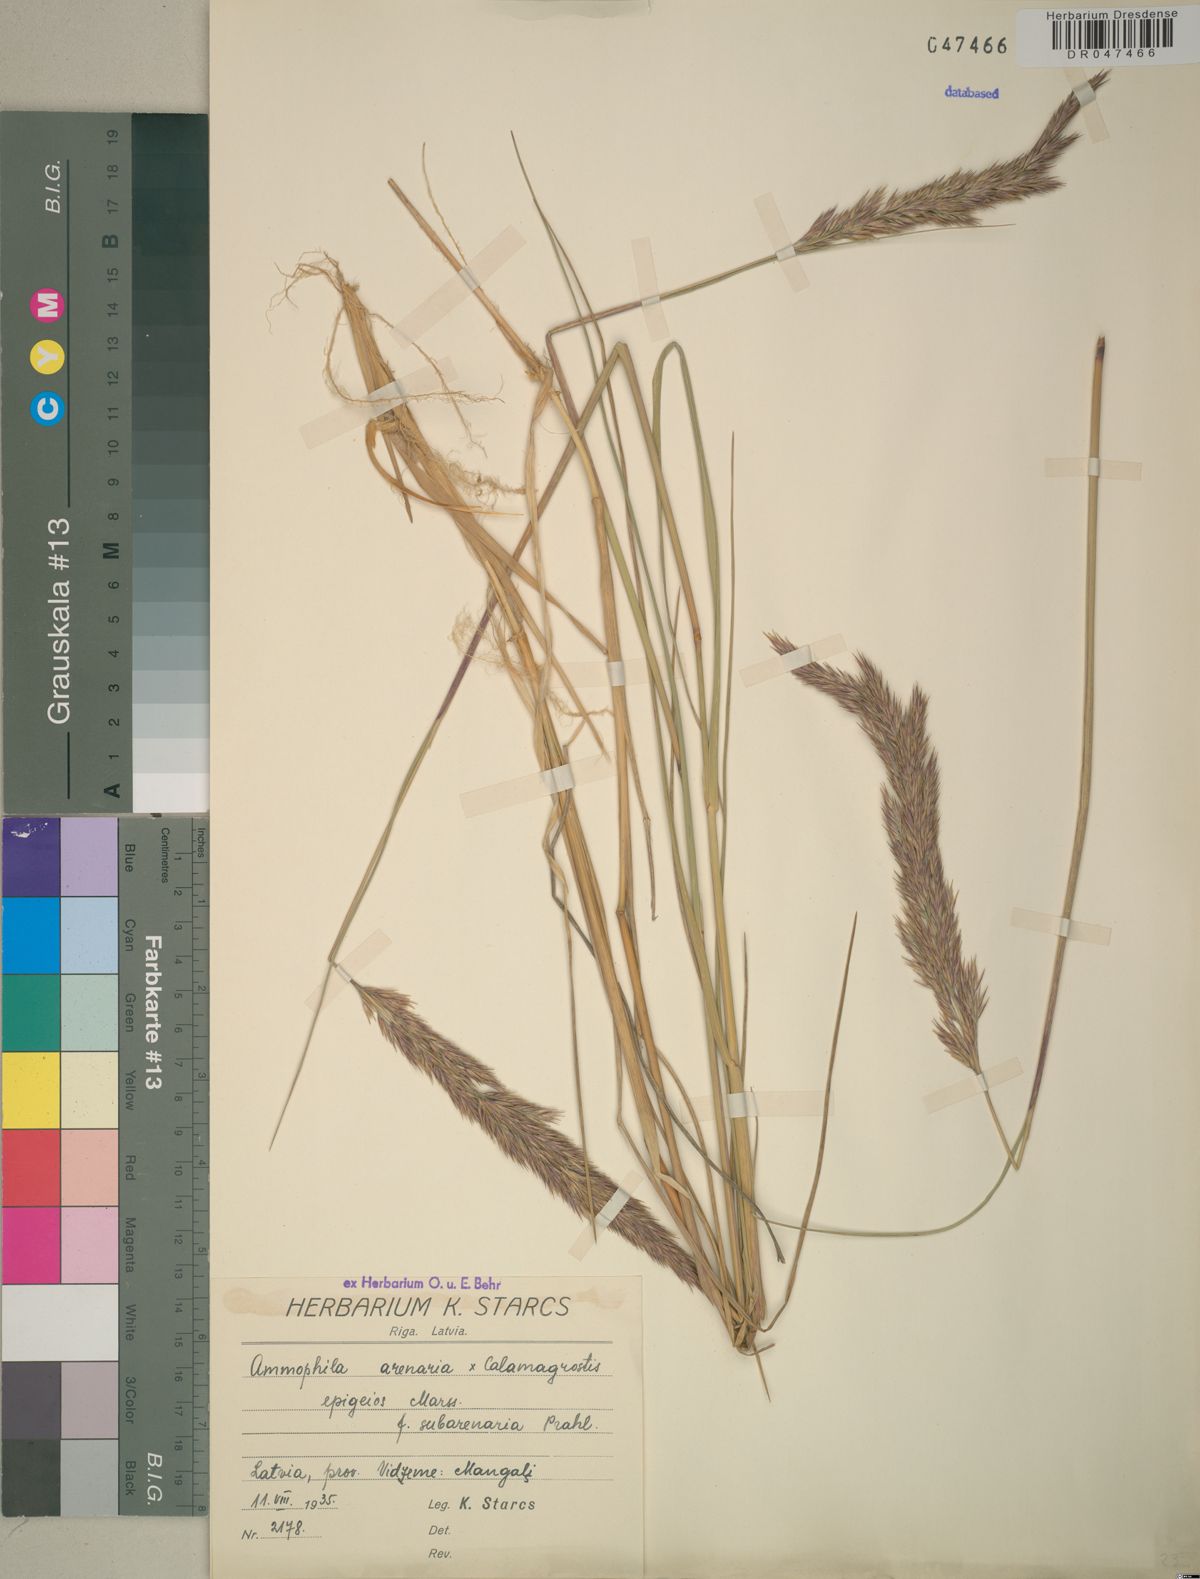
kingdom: Plantae
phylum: Tracheophyta
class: Liliopsida
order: Poales
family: Poaceae
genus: Calamagrostis
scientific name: Calamagrostis arenaria
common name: European beachgrass
